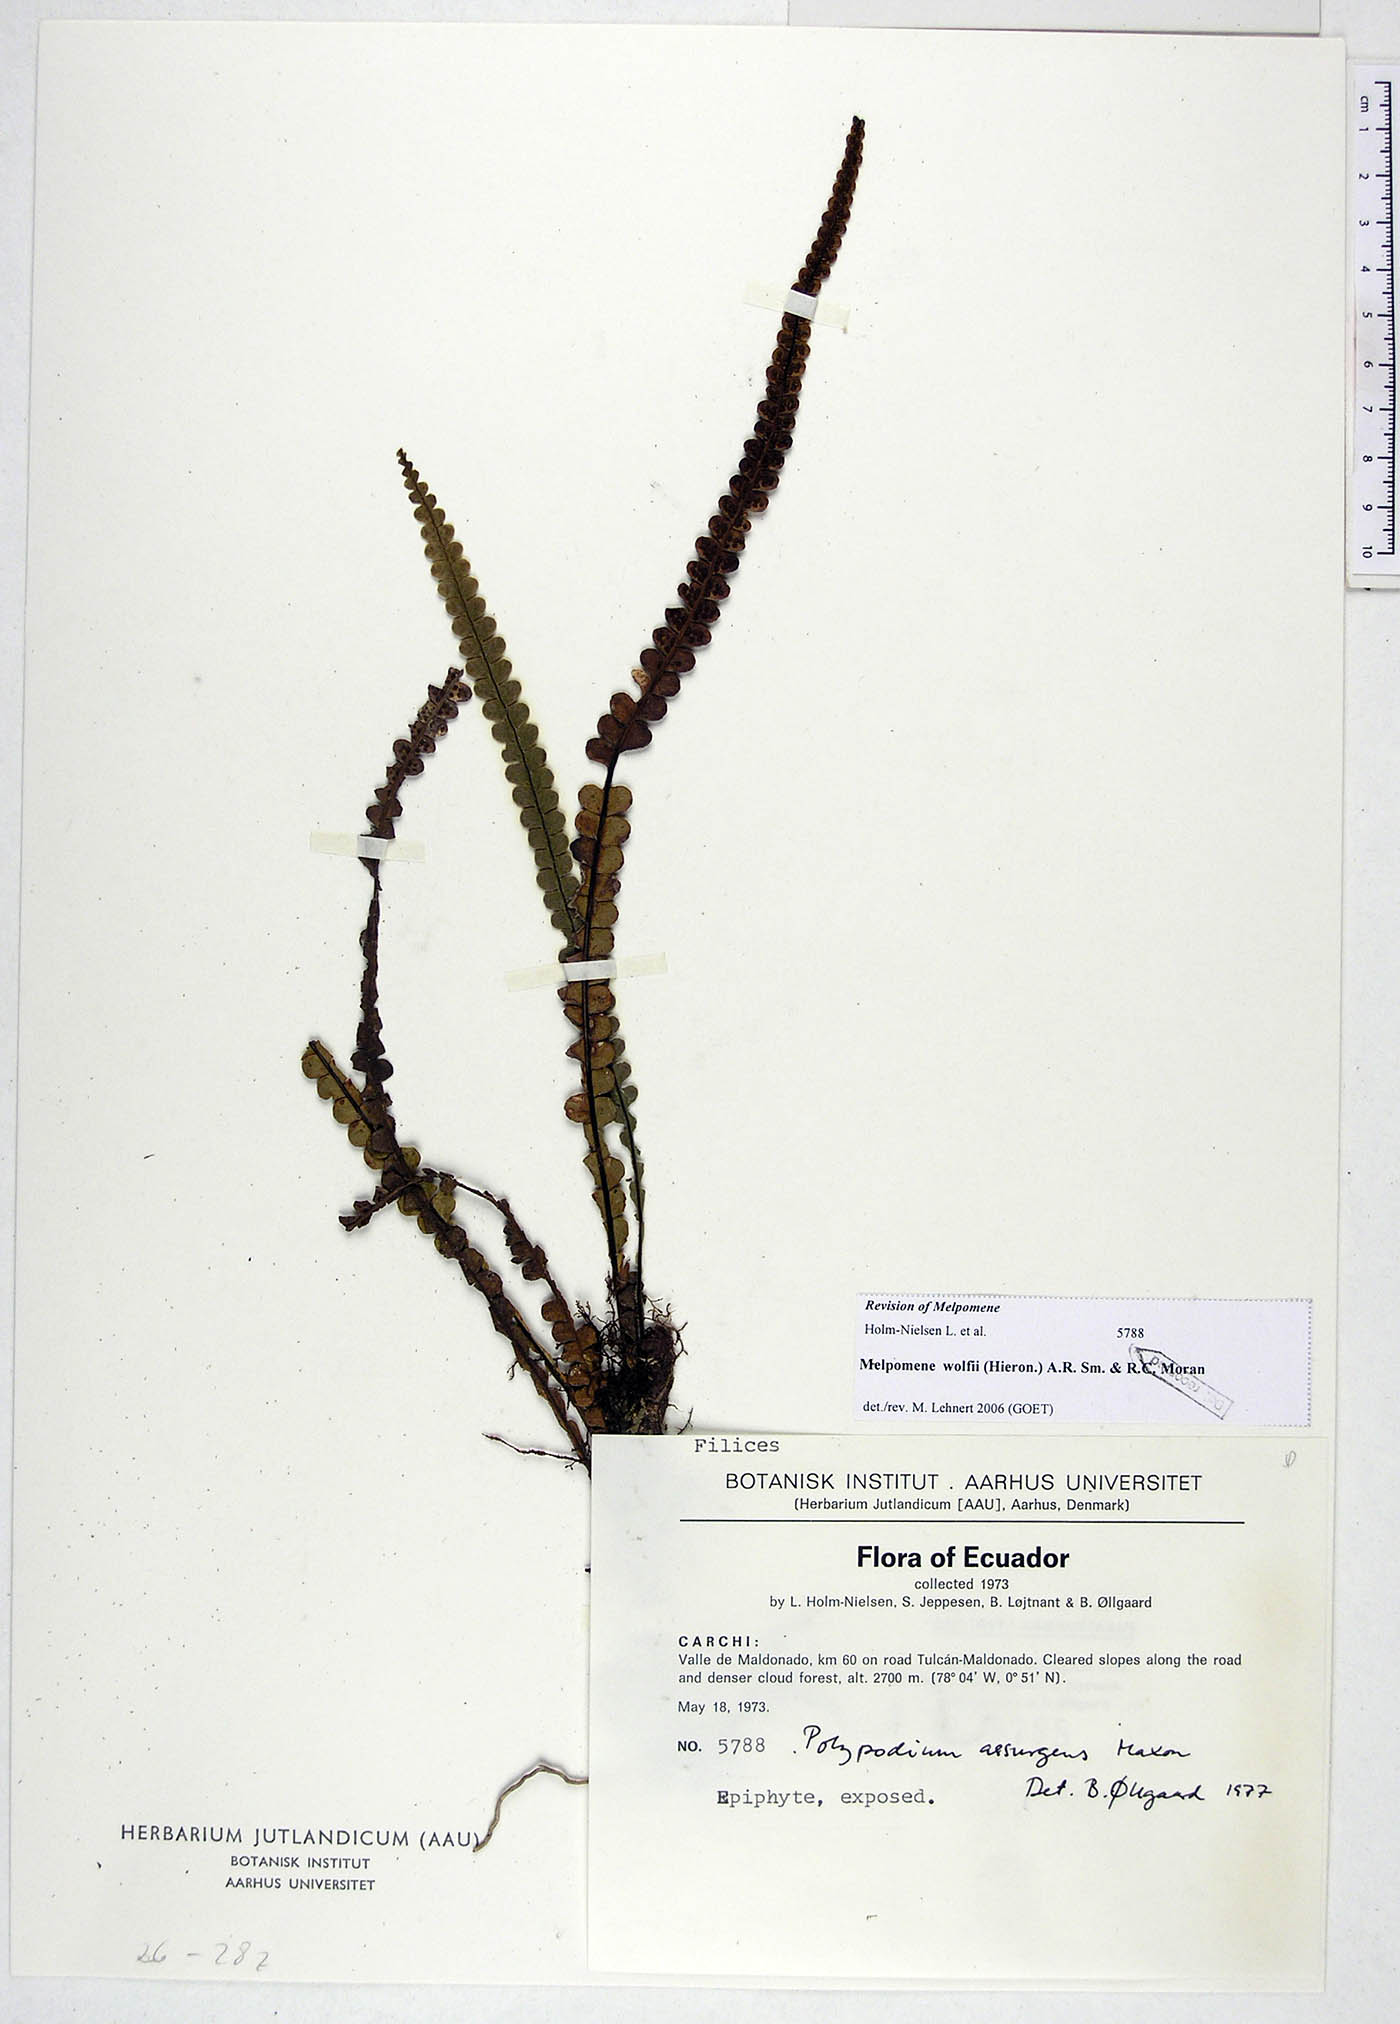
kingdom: Plantae
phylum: Tracheophyta
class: Polypodiopsida
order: Polypodiales
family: Polypodiaceae
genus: Melpomene
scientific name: Melpomene wolfii
